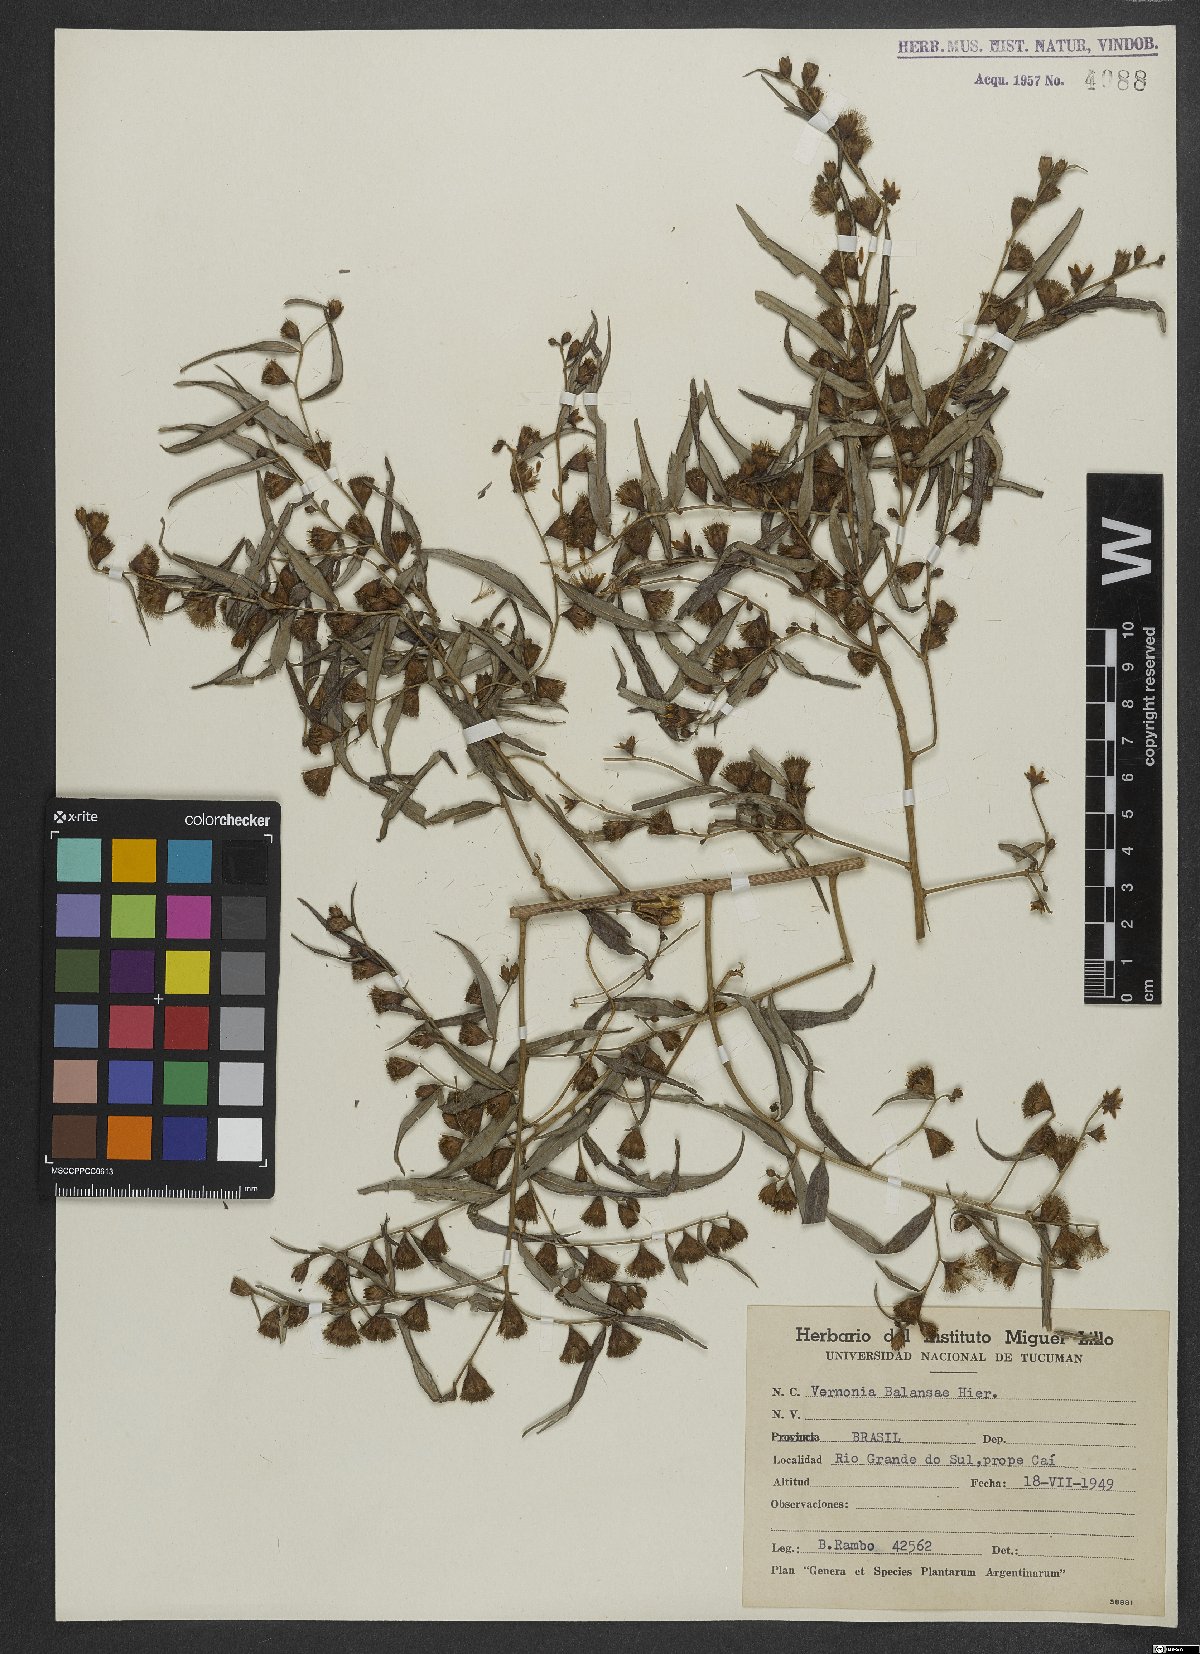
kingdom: Plantae
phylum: Tracheophyta
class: Magnoliopsida
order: Asterales
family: Asteraceae
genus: Lepidaploa
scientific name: Lepidaploa balansae
